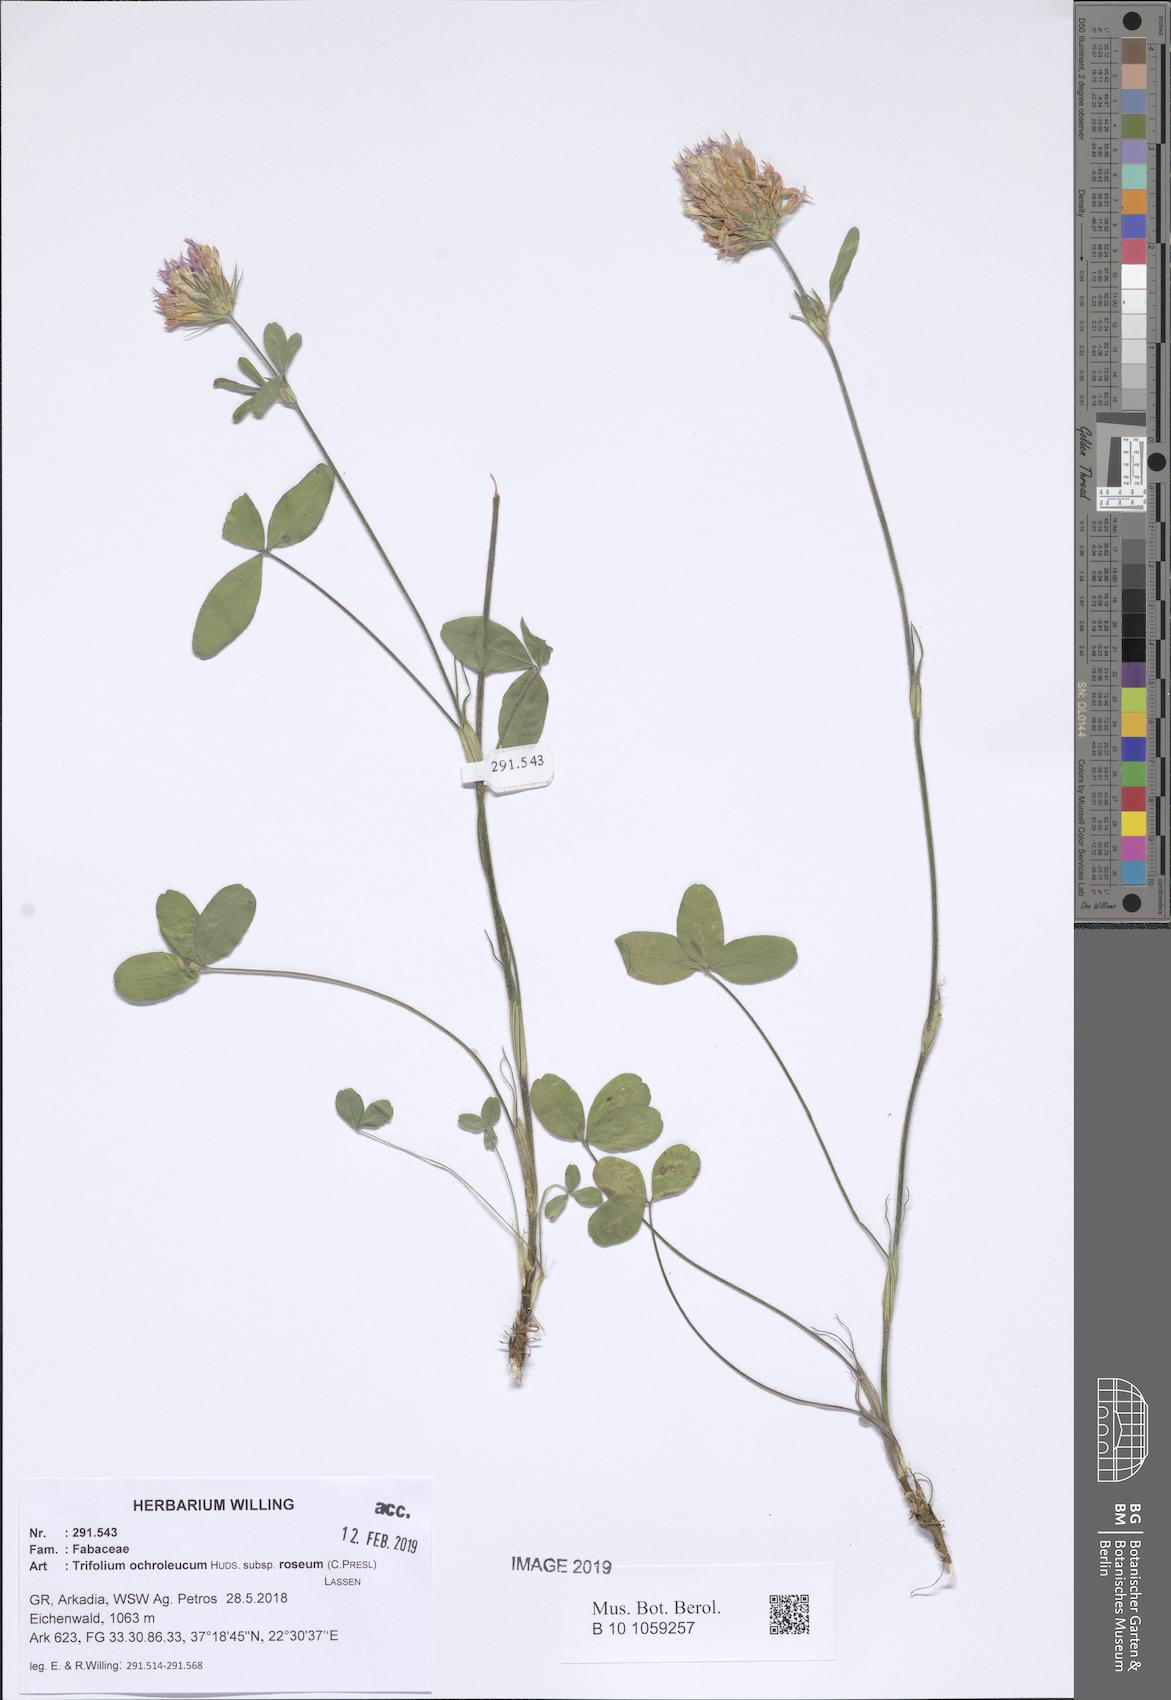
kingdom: Plantae
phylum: Tracheophyta
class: Magnoliopsida
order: Fabales
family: Fabaceae
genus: Trifolium
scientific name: Trifolium ochroleucon
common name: Sulphur clover
